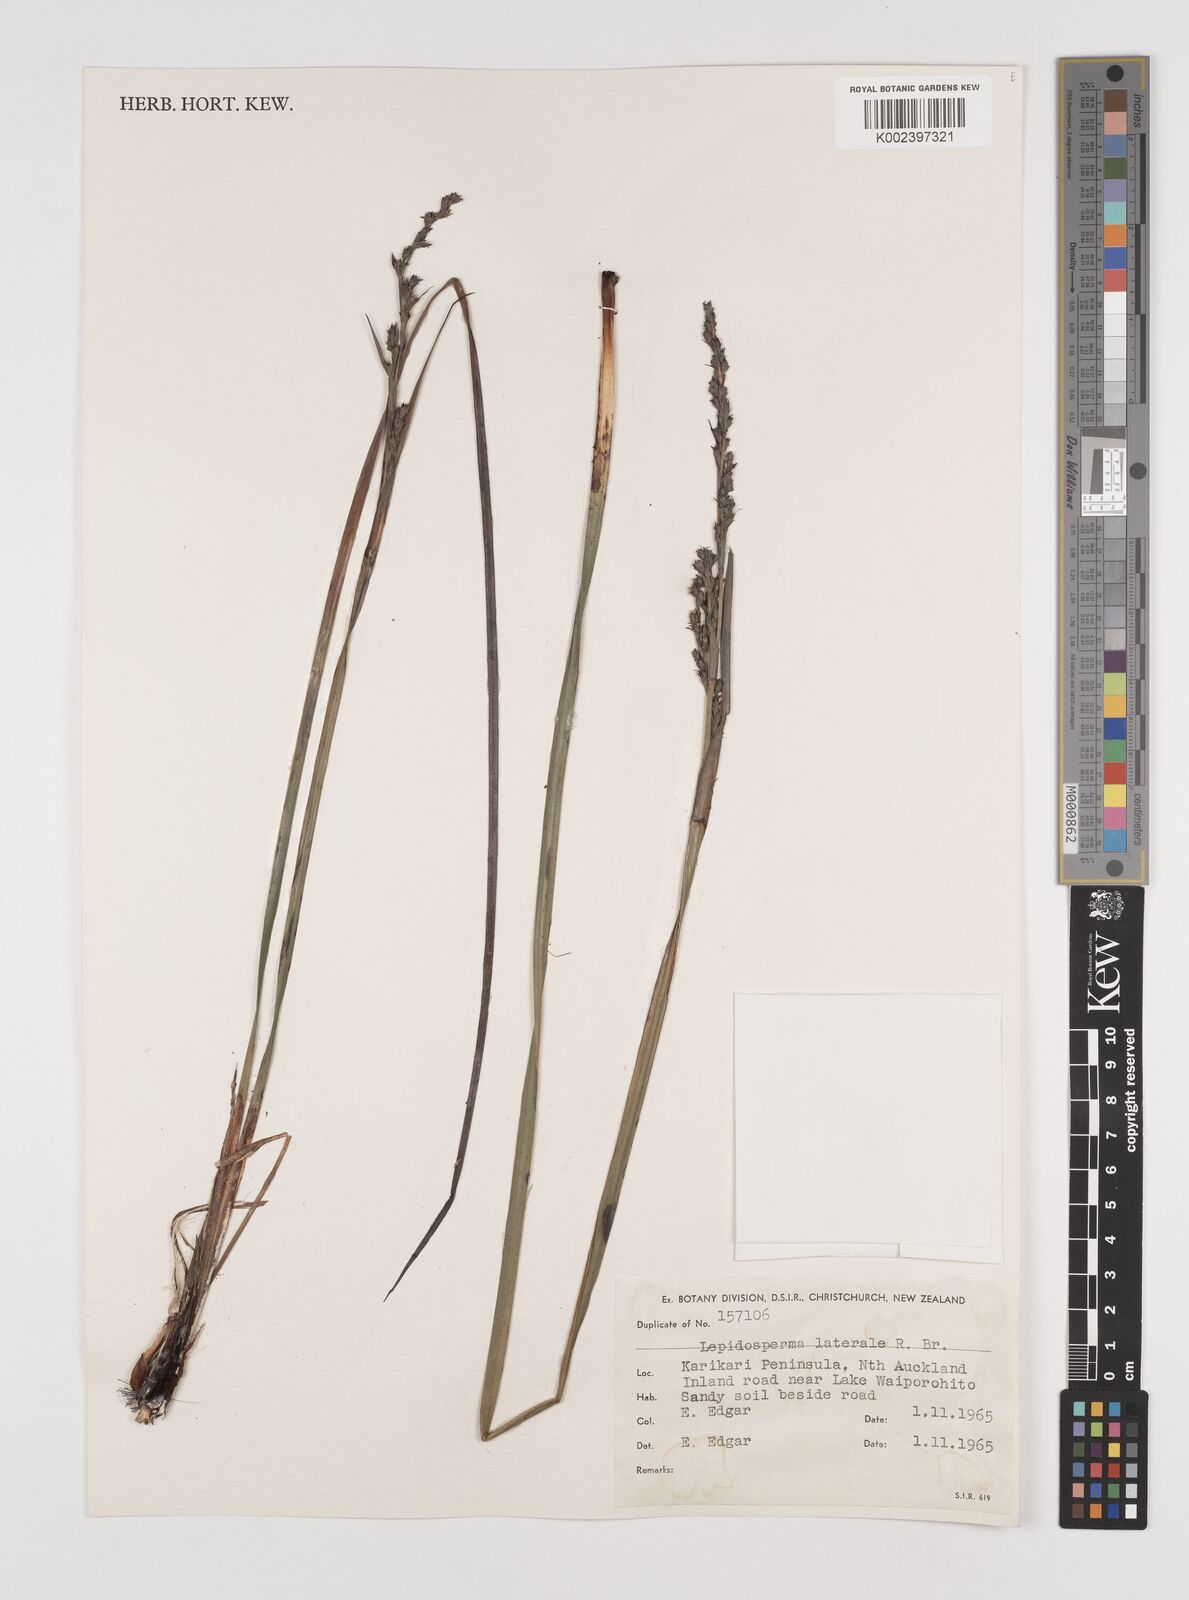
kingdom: Plantae
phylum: Tracheophyta
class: Liliopsida
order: Poales
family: Cyperaceae
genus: Lepidosperma
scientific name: Lepidosperma laterale
